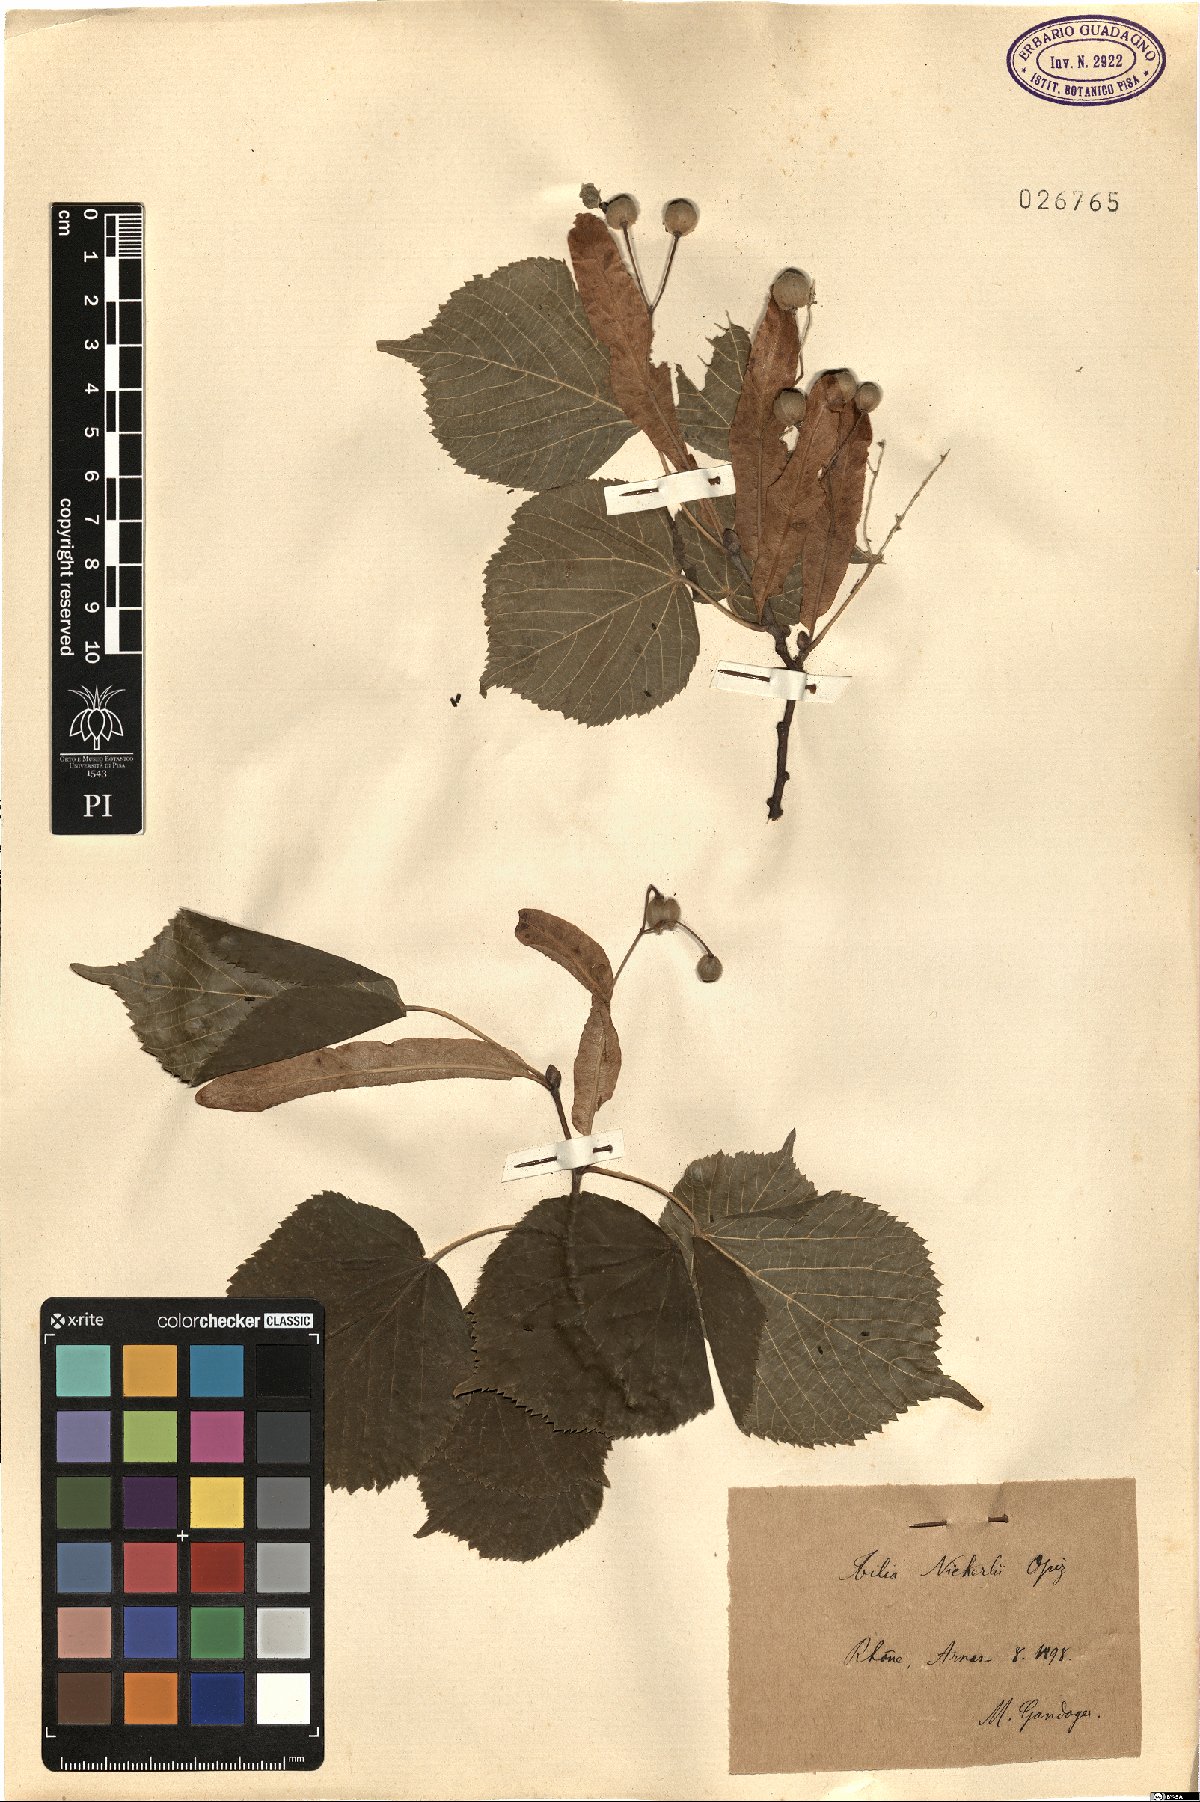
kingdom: Plantae
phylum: Tracheophyta
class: Magnoliopsida
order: Malvales
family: Malvaceae
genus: Tilia
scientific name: Tilia platyphyllos
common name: Large-leaved lime
